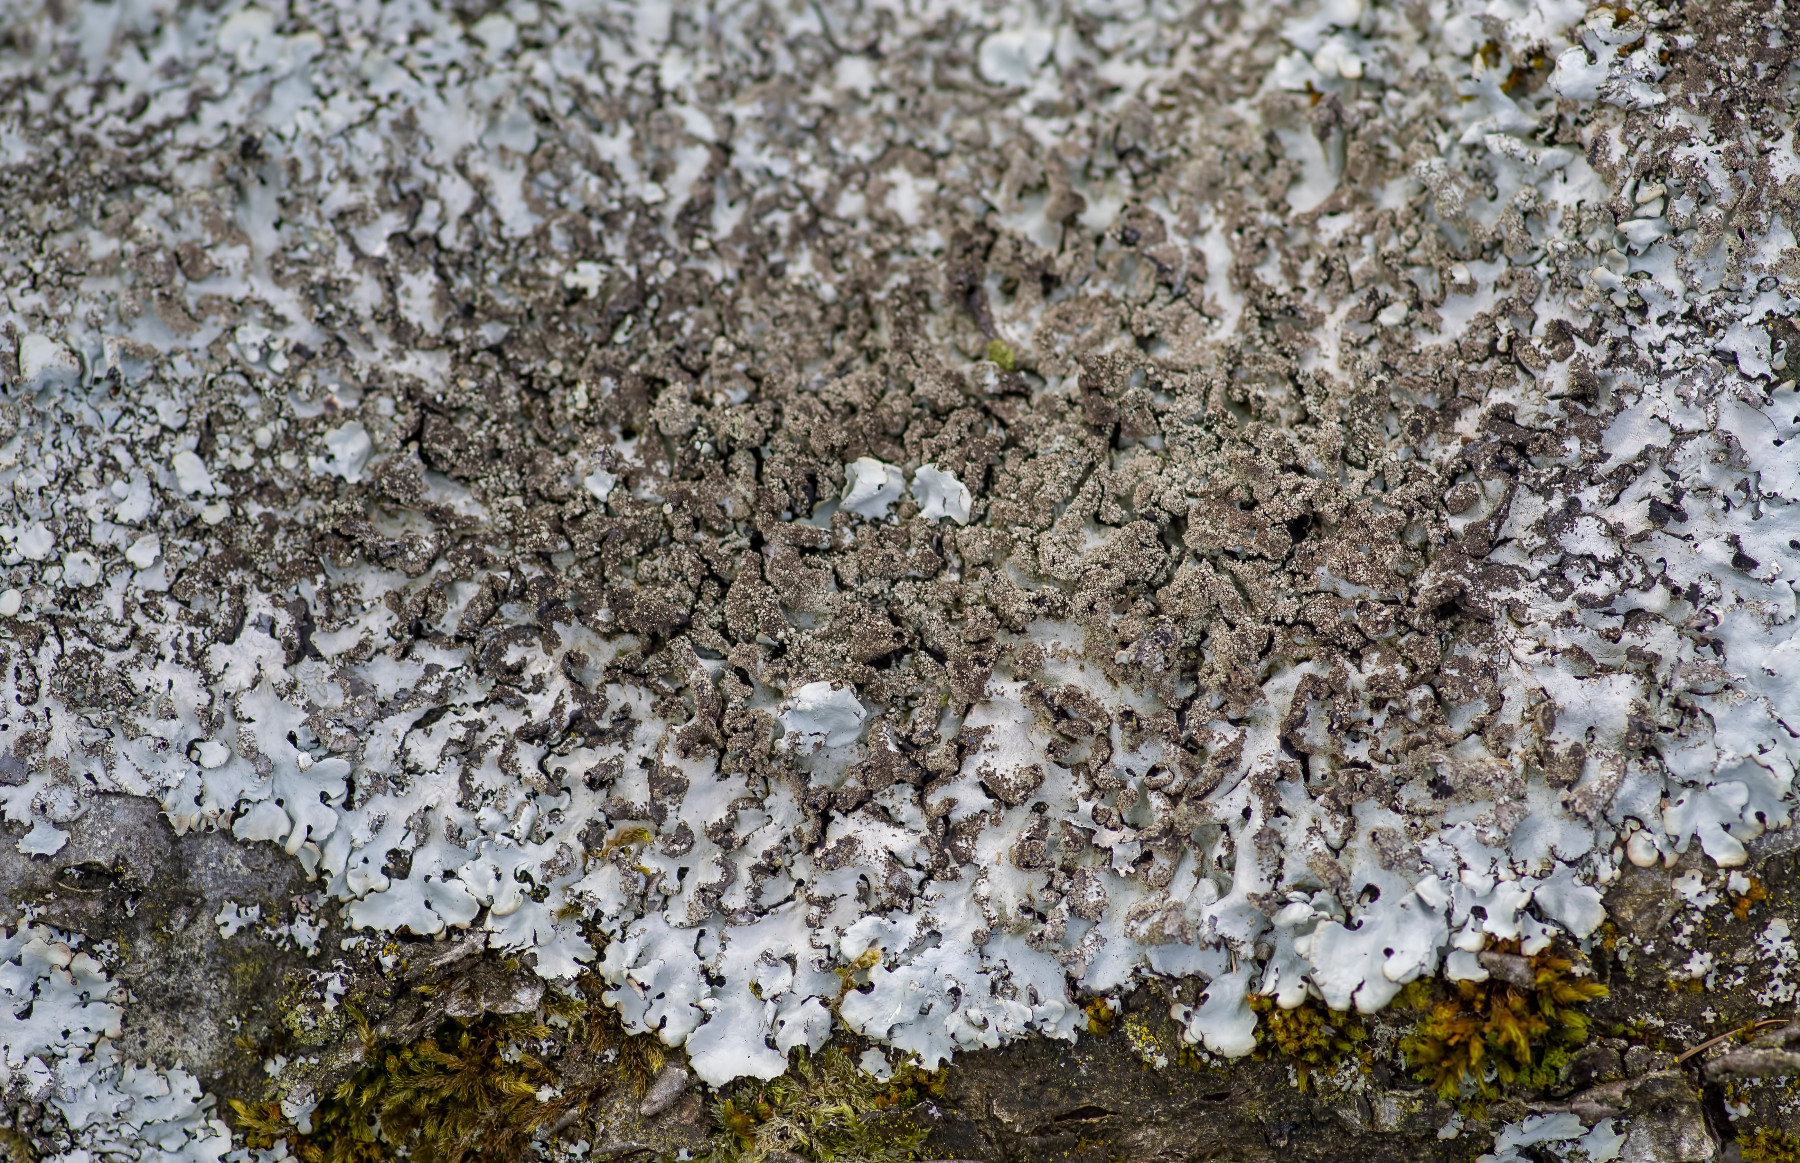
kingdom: Fungi
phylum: Ascomycota
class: Lecanoromycetes
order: Lecanorales
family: Parmeliaceae
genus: Hypotrachyna
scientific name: Hypotrachyna afrorevoluta
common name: kyst-skållav
